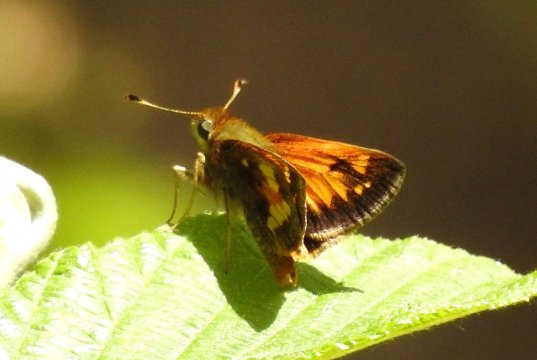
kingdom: Animalia
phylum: Arthropoda
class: Insecta
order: Lepidoptera
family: Hesperiidae
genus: Lon
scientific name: Lon hobomok
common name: Hobomok Skipper
